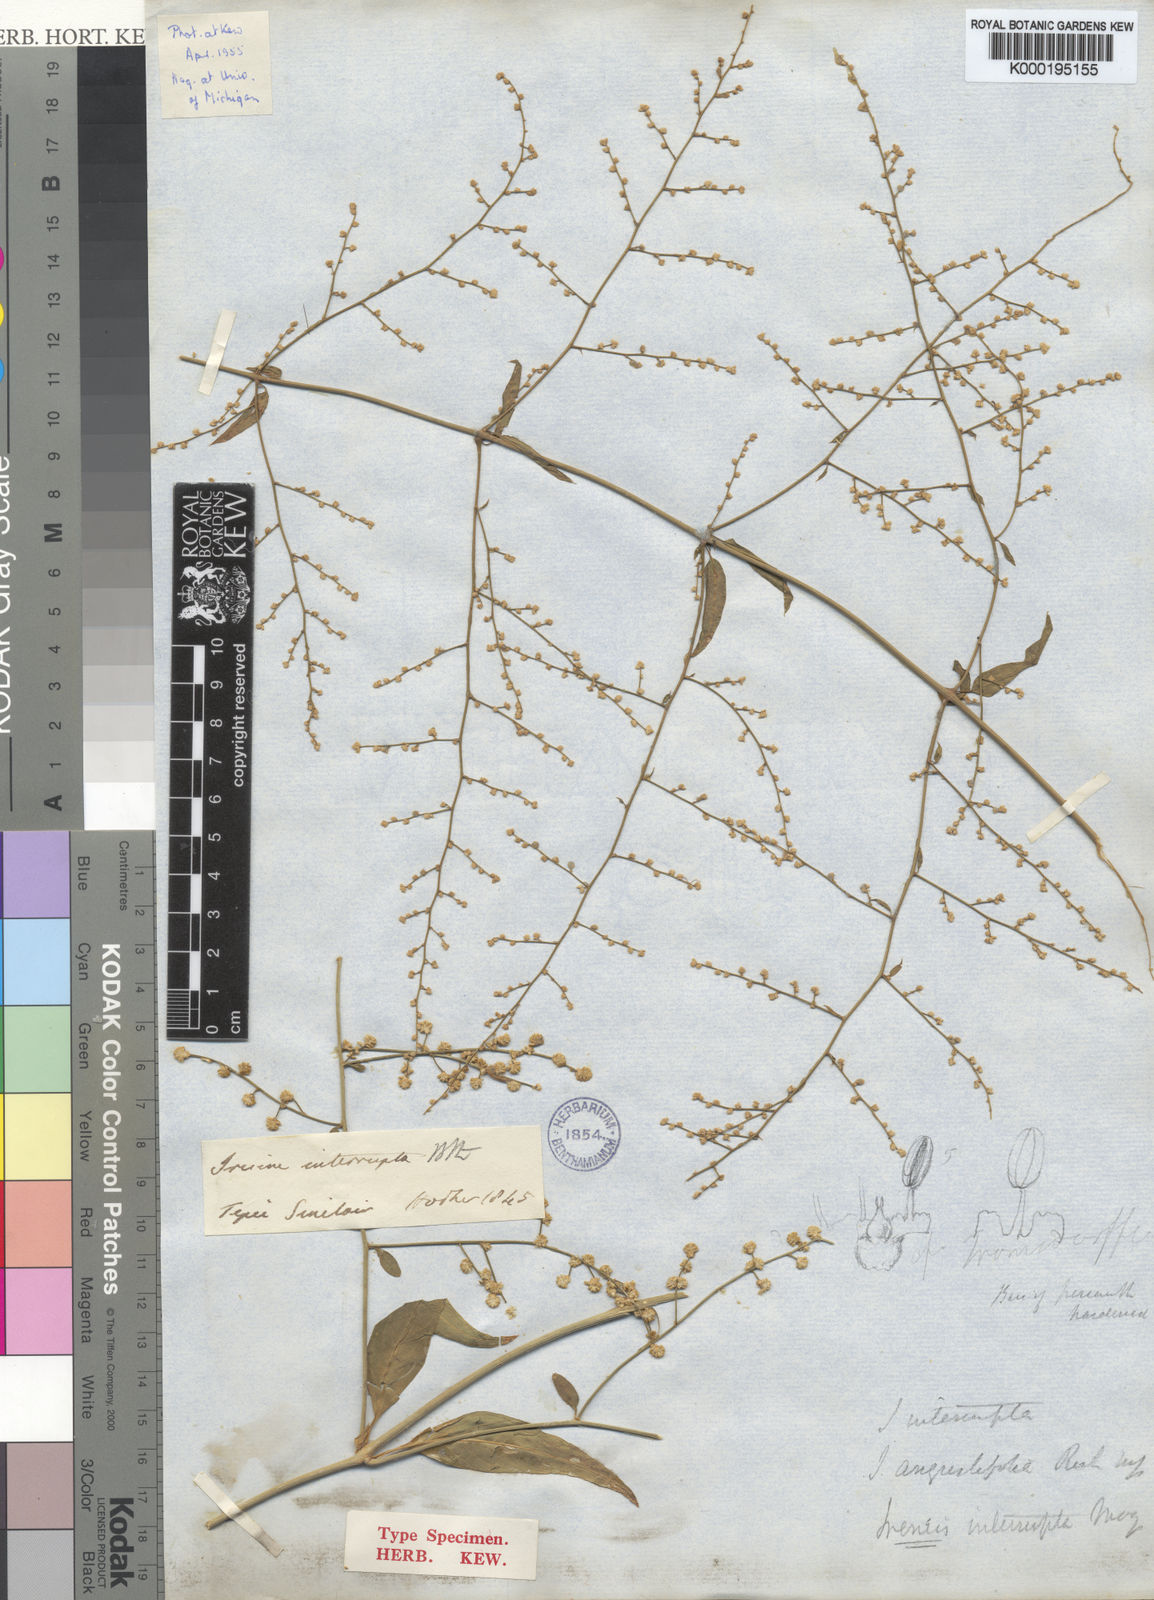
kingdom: Plantae
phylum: Tracheophyta
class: Magnoliopsida
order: Caryophyllales
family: Amaranthaceae
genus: Iresine
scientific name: Iresine interrupta
